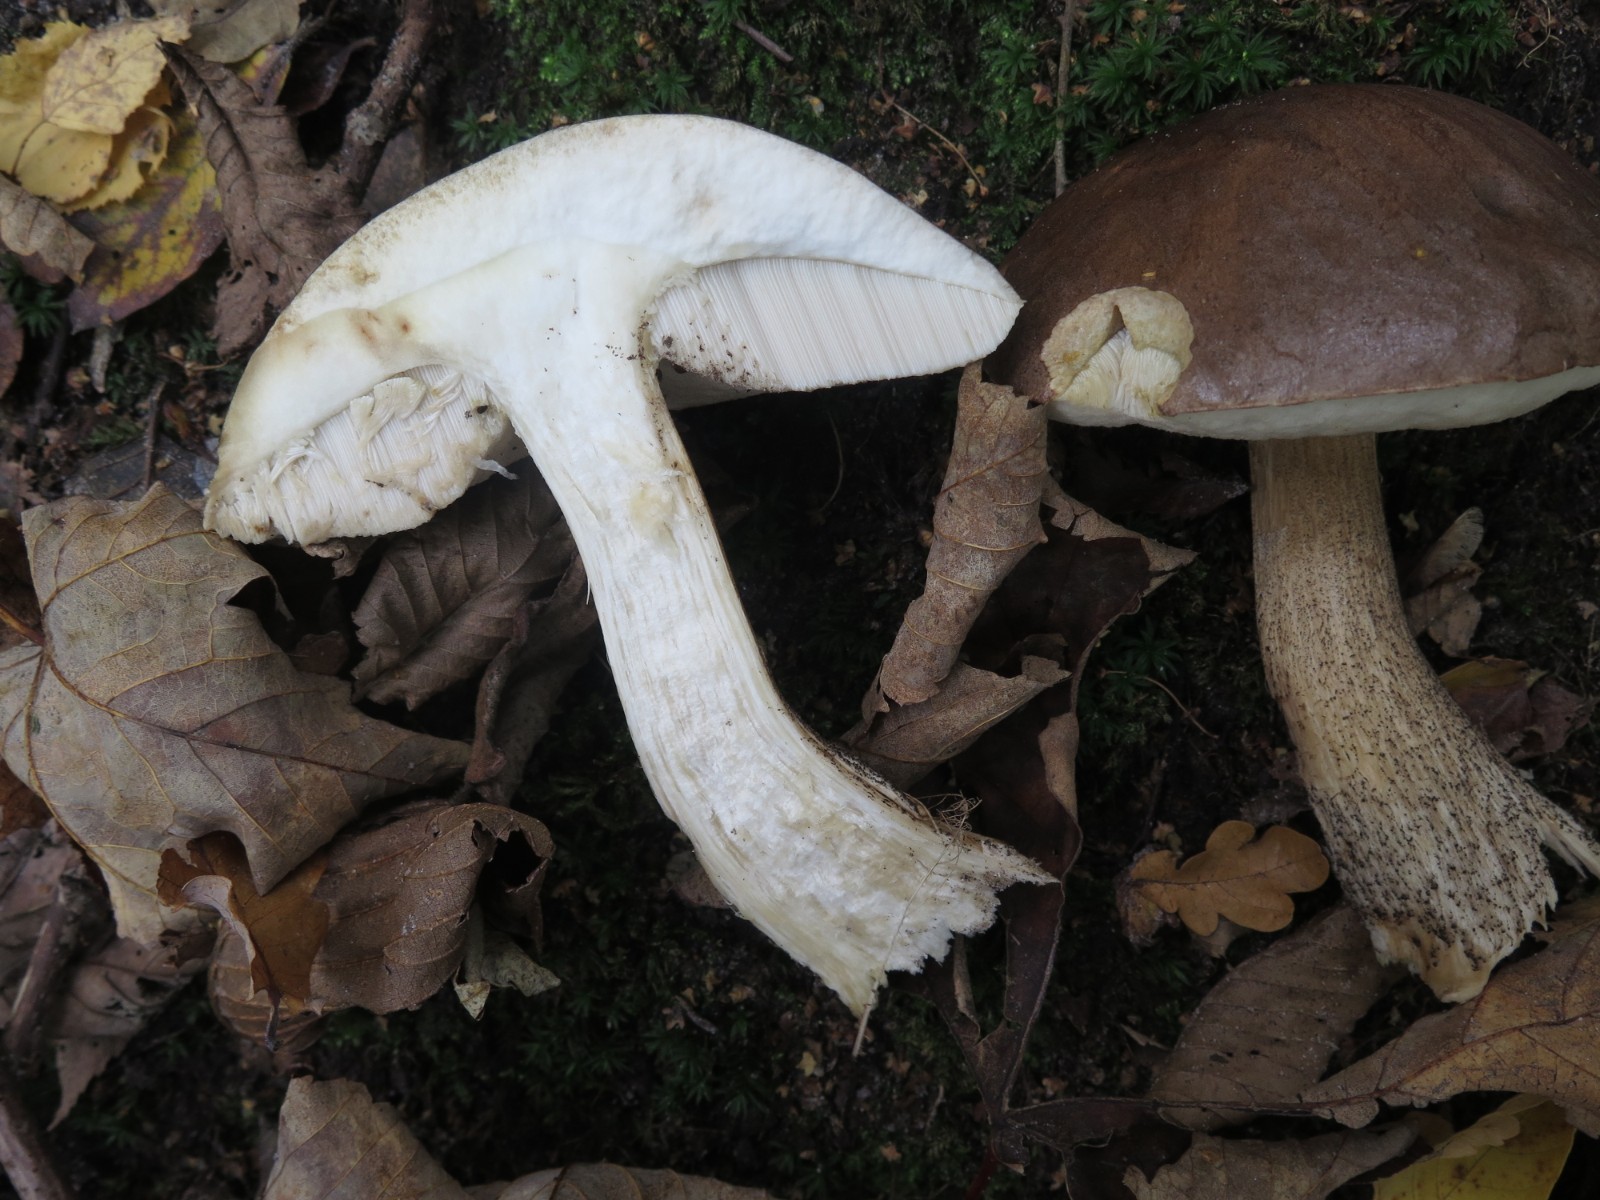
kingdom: Fungi
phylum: Basidiomycota
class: Agaricomycetes
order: Boletales
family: Boletaceae
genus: Leccinum
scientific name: Leccinum scabrum
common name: brun skælrørhat
